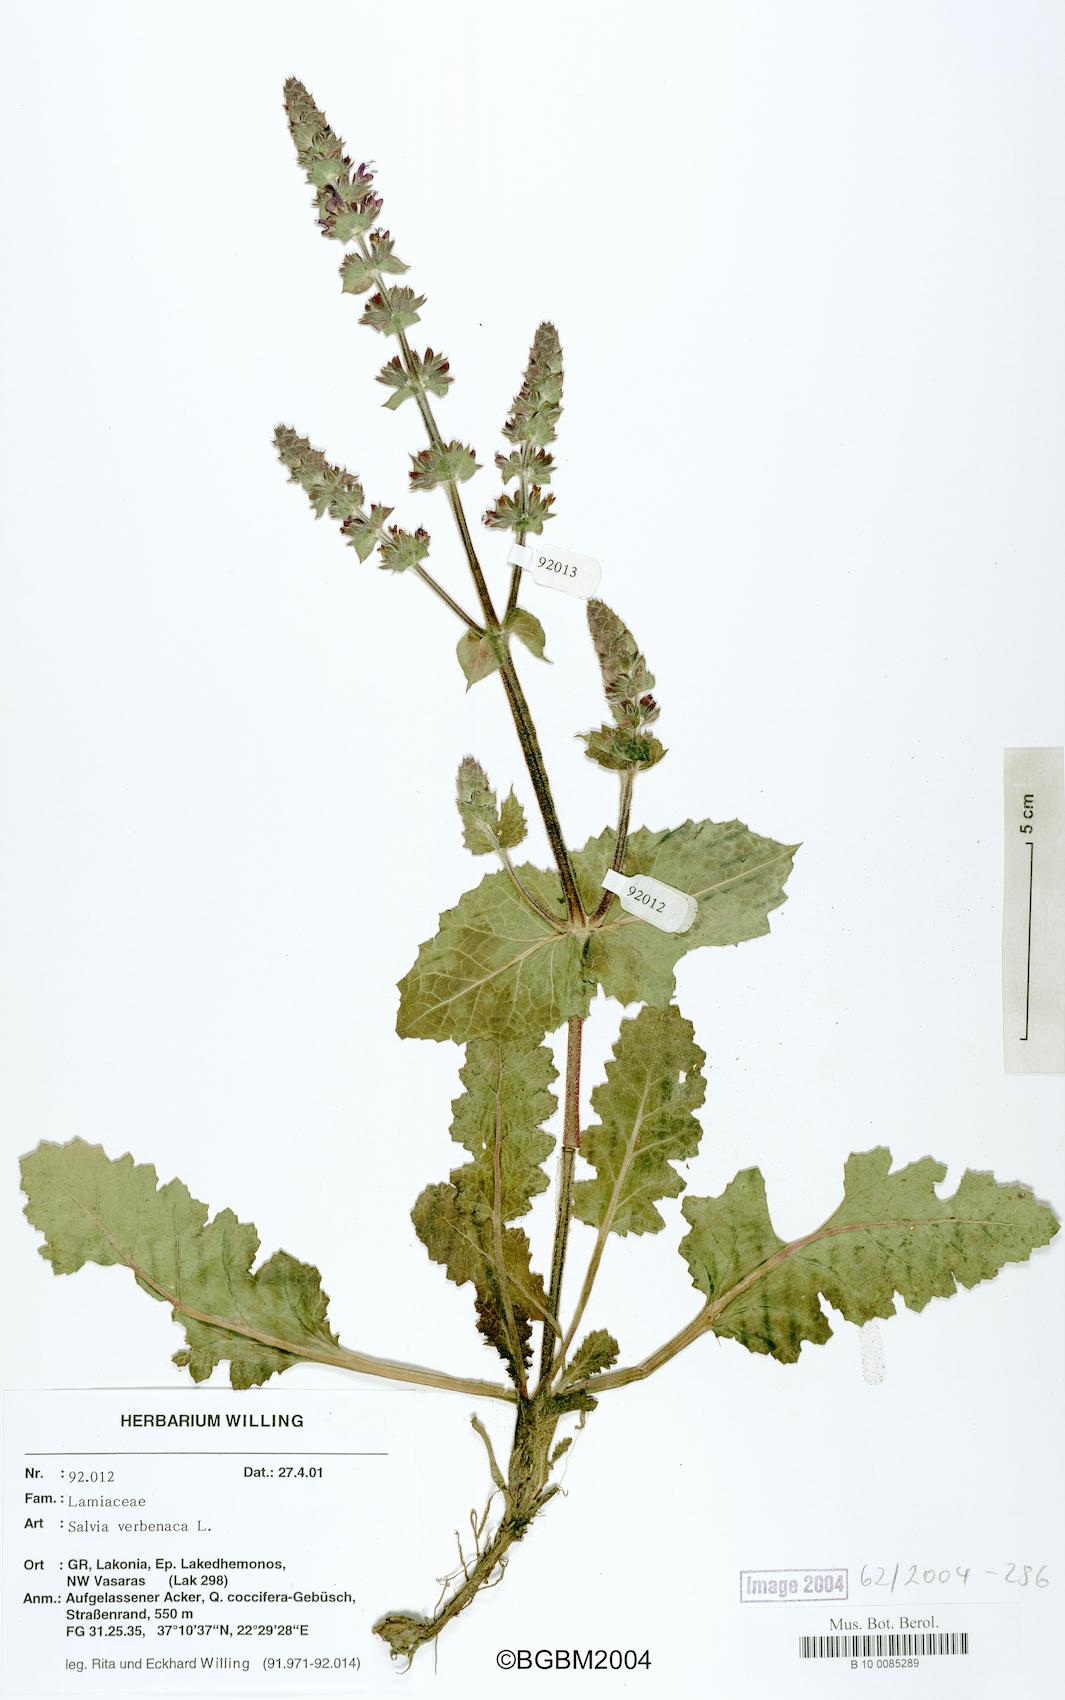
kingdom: Plantae
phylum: Tracheophyta
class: Magnoliopsida
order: Lamiales
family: Lamiaceae
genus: Salvia
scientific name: Salvia verbenaca
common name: Wild clary
